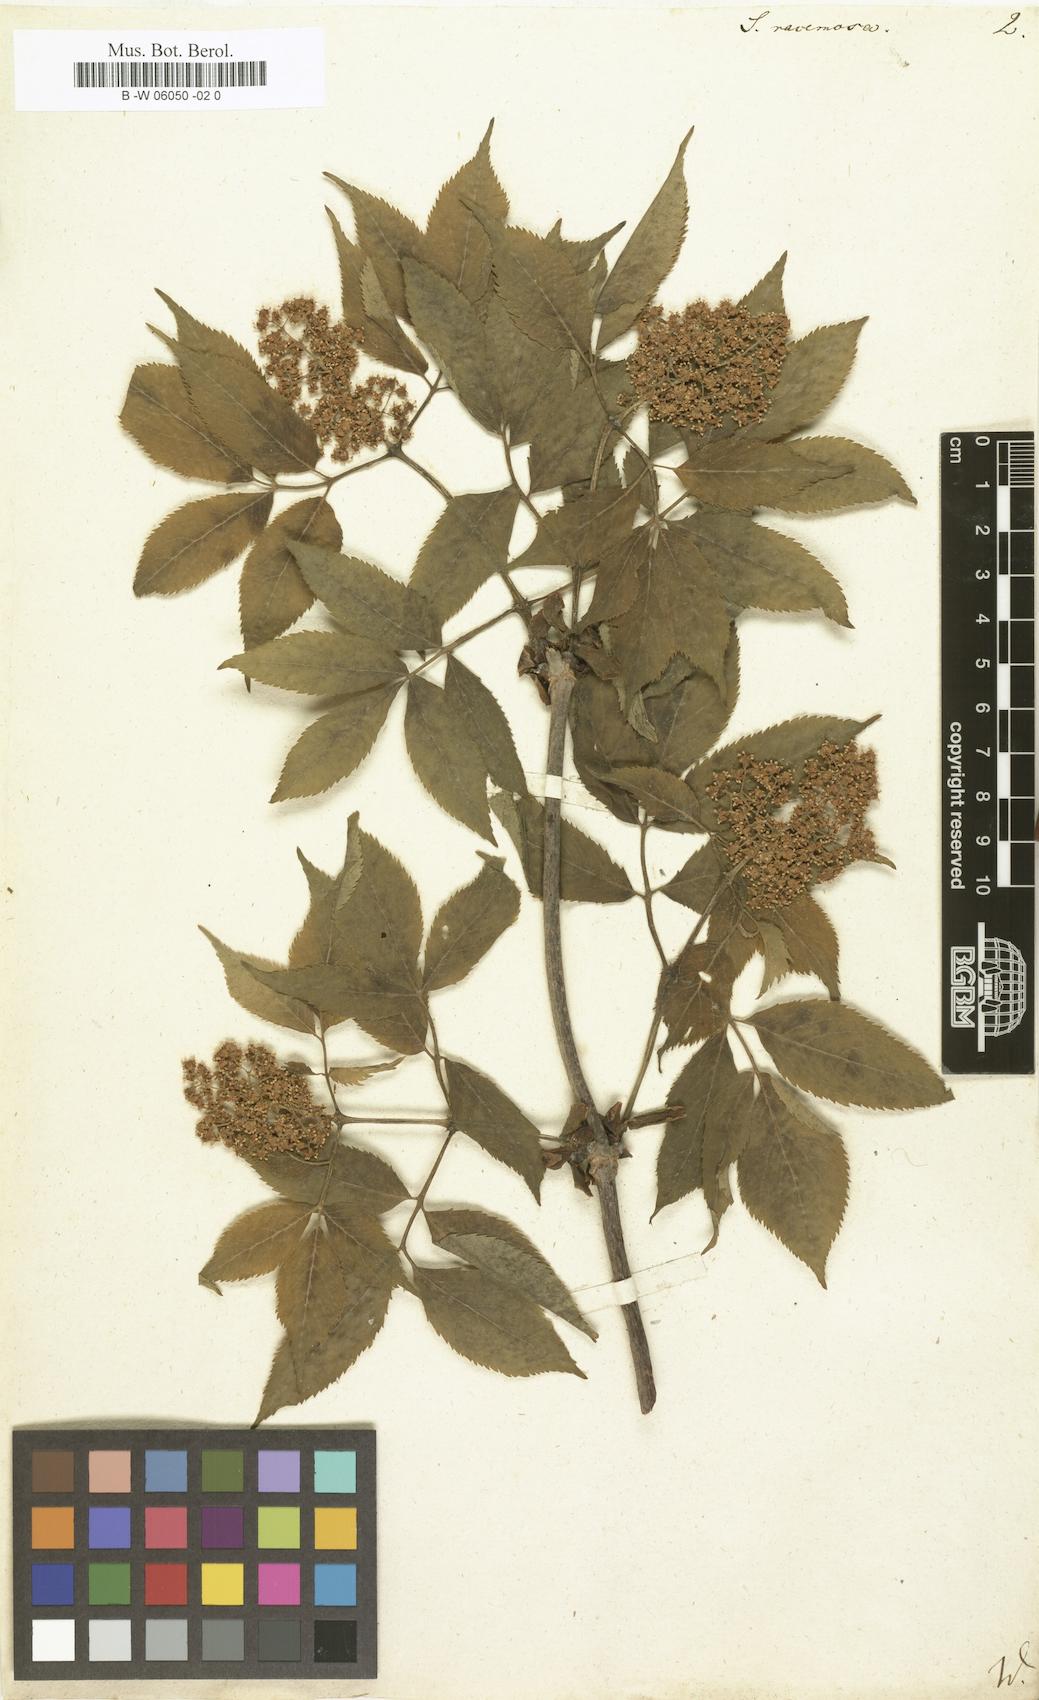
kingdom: Plantae
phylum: Tracheophyta
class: Magnoliopsida
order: Dipsacales
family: Viburnaceae
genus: Sambucus
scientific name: Sambucus racemosa
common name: Red-berried elder
